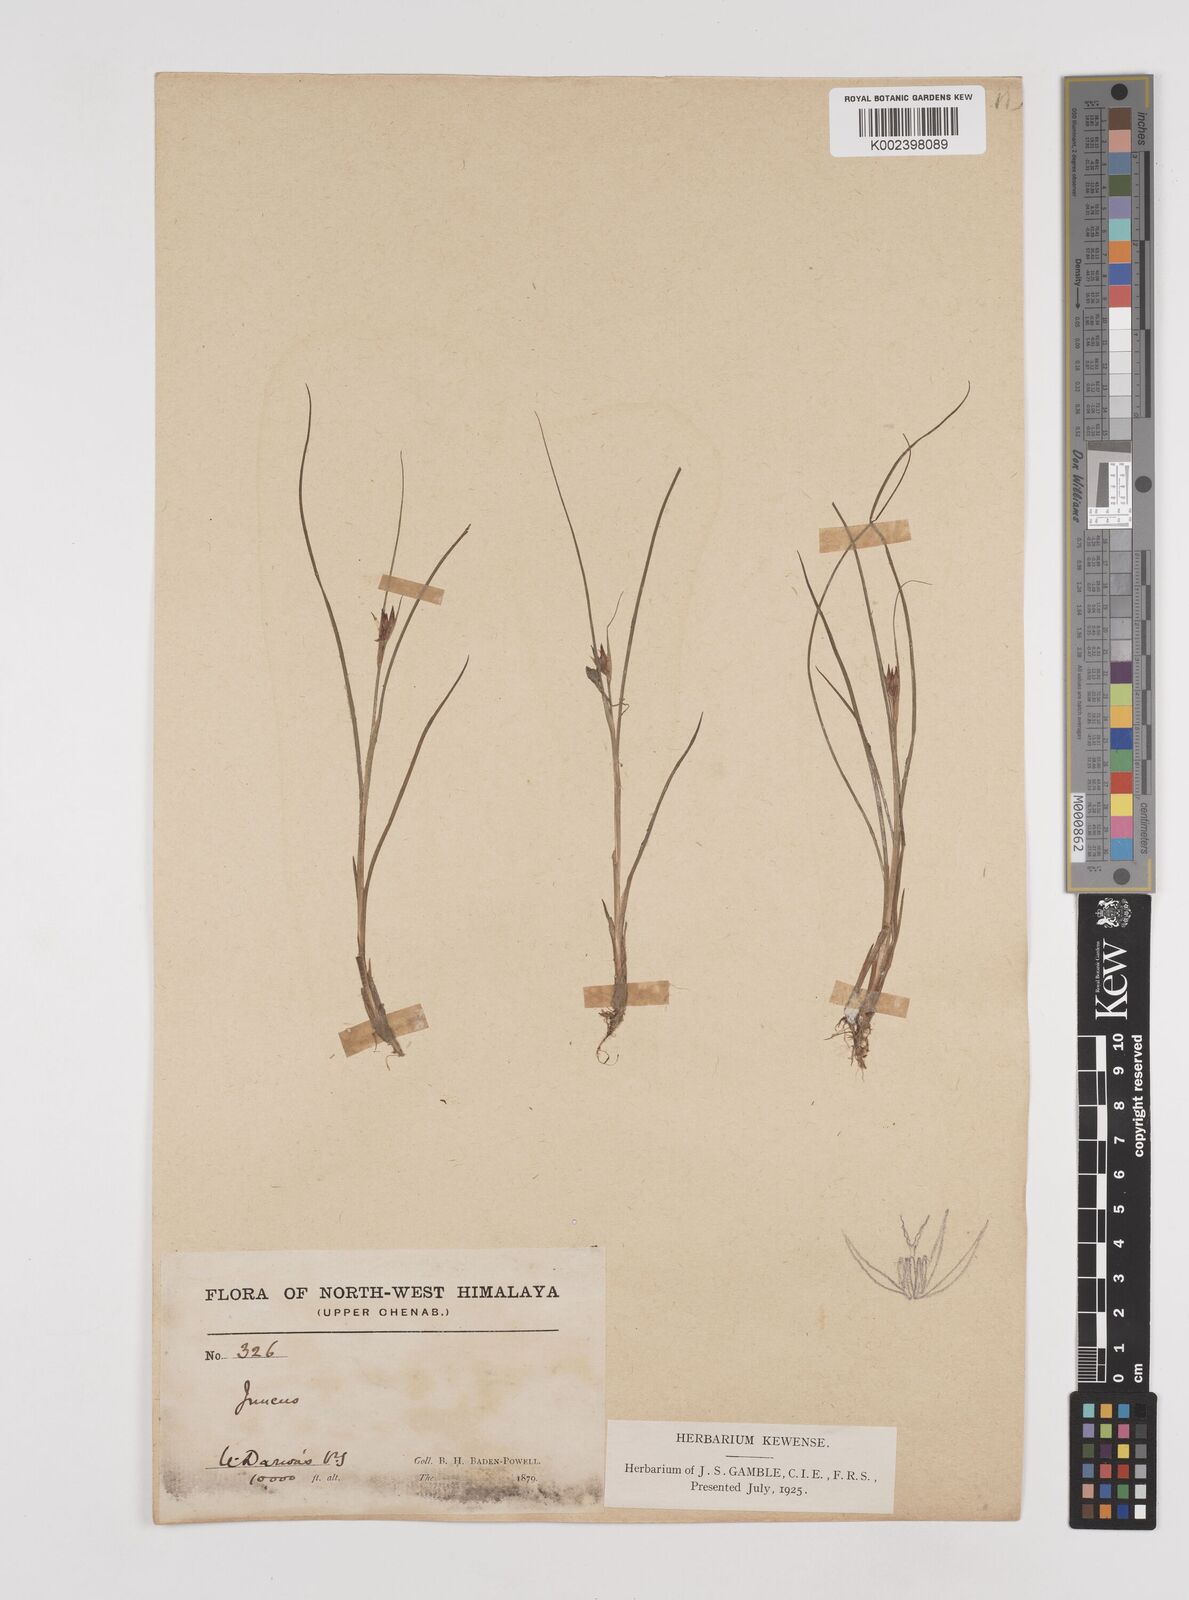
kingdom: Plantae
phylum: Tracheophyta
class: Liliopsida
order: Poales
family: Juncaceae
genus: Juncus
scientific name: Juncus
